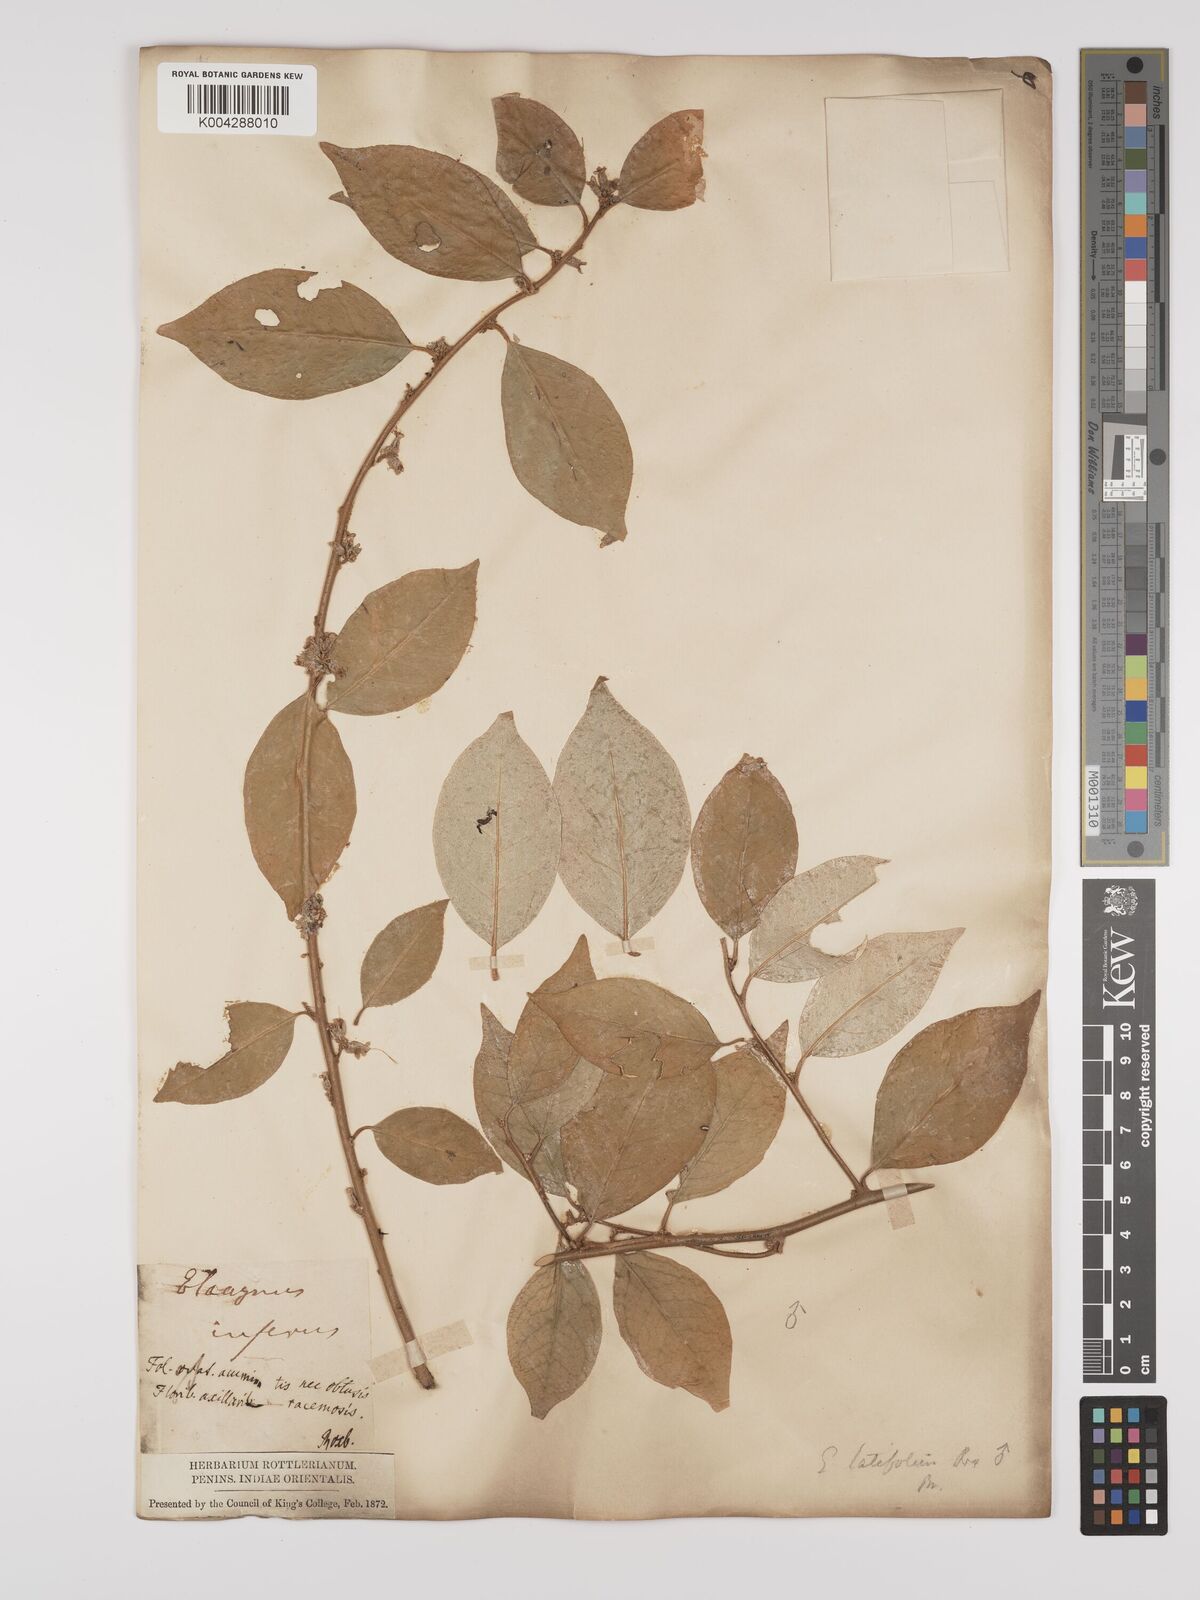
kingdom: Plantae
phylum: Tracheophyta
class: Magnoliopsida
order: Rosales
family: Elaeagnaceae
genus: Elaeagnus
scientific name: Elaeagnus latifolia
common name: Oleaster
